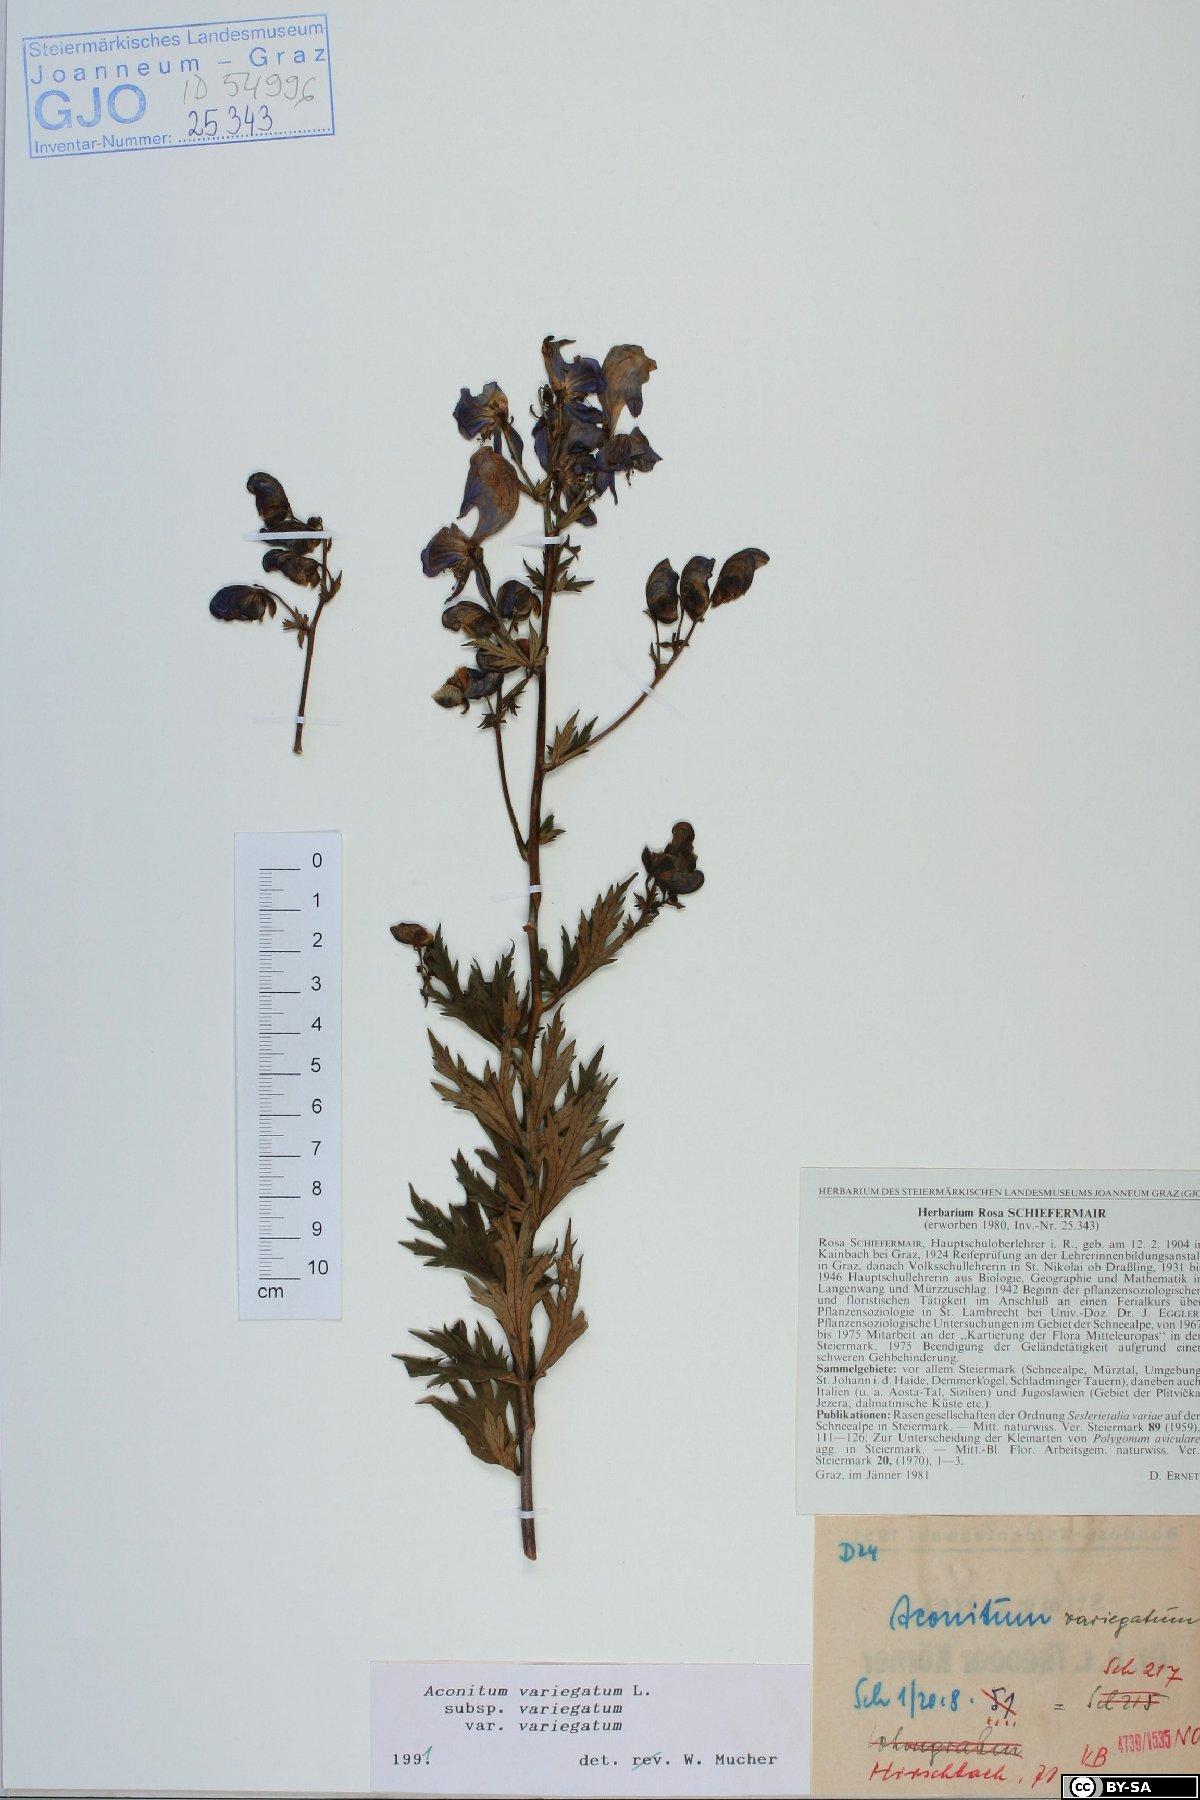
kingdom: Plantae
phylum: Tracheophyta
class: Magnoliopsida
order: Ranunculales
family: Ranunculaceae
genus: Aconitum
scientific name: Aconitum variegatum
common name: Manchurian monkshood
